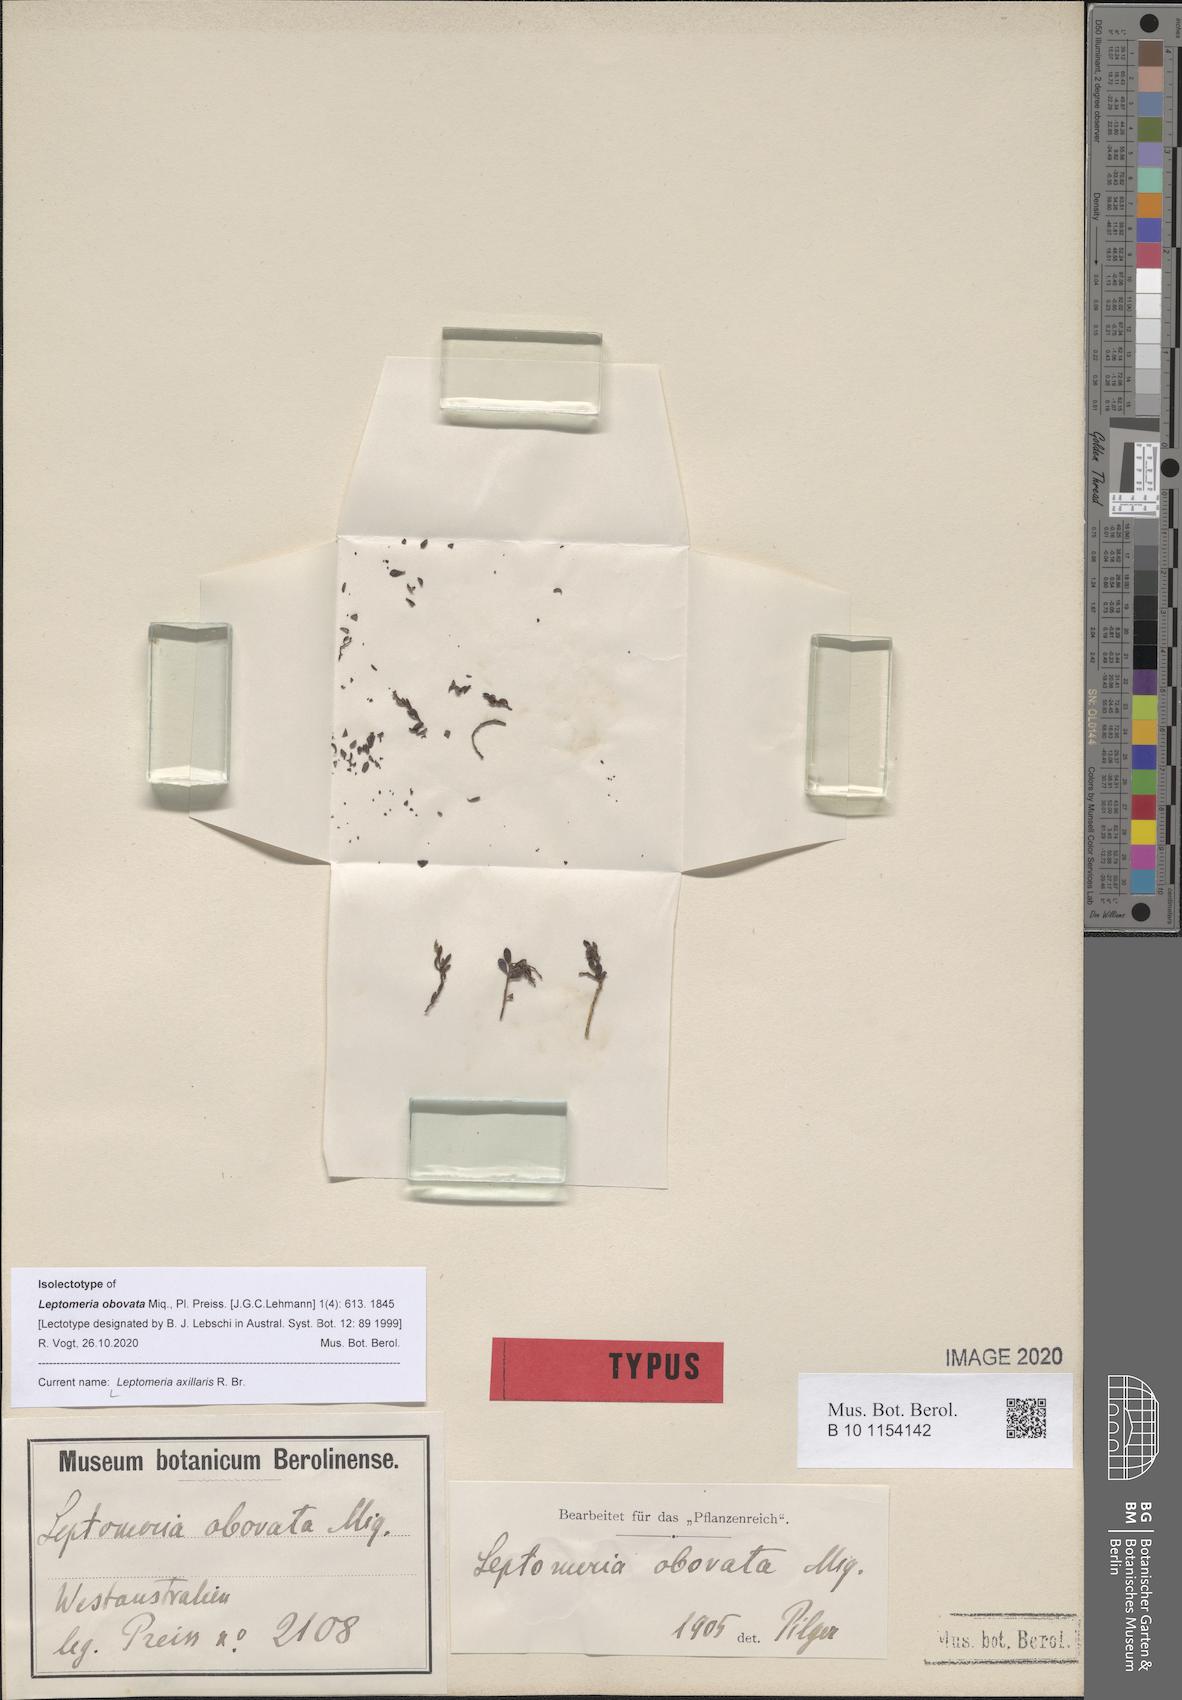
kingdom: Plantae
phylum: Tracheophyta
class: Magnoliopsida
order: Santalales
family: Amphorogynaceae
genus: Leptomeria
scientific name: Leptomeria obovata
